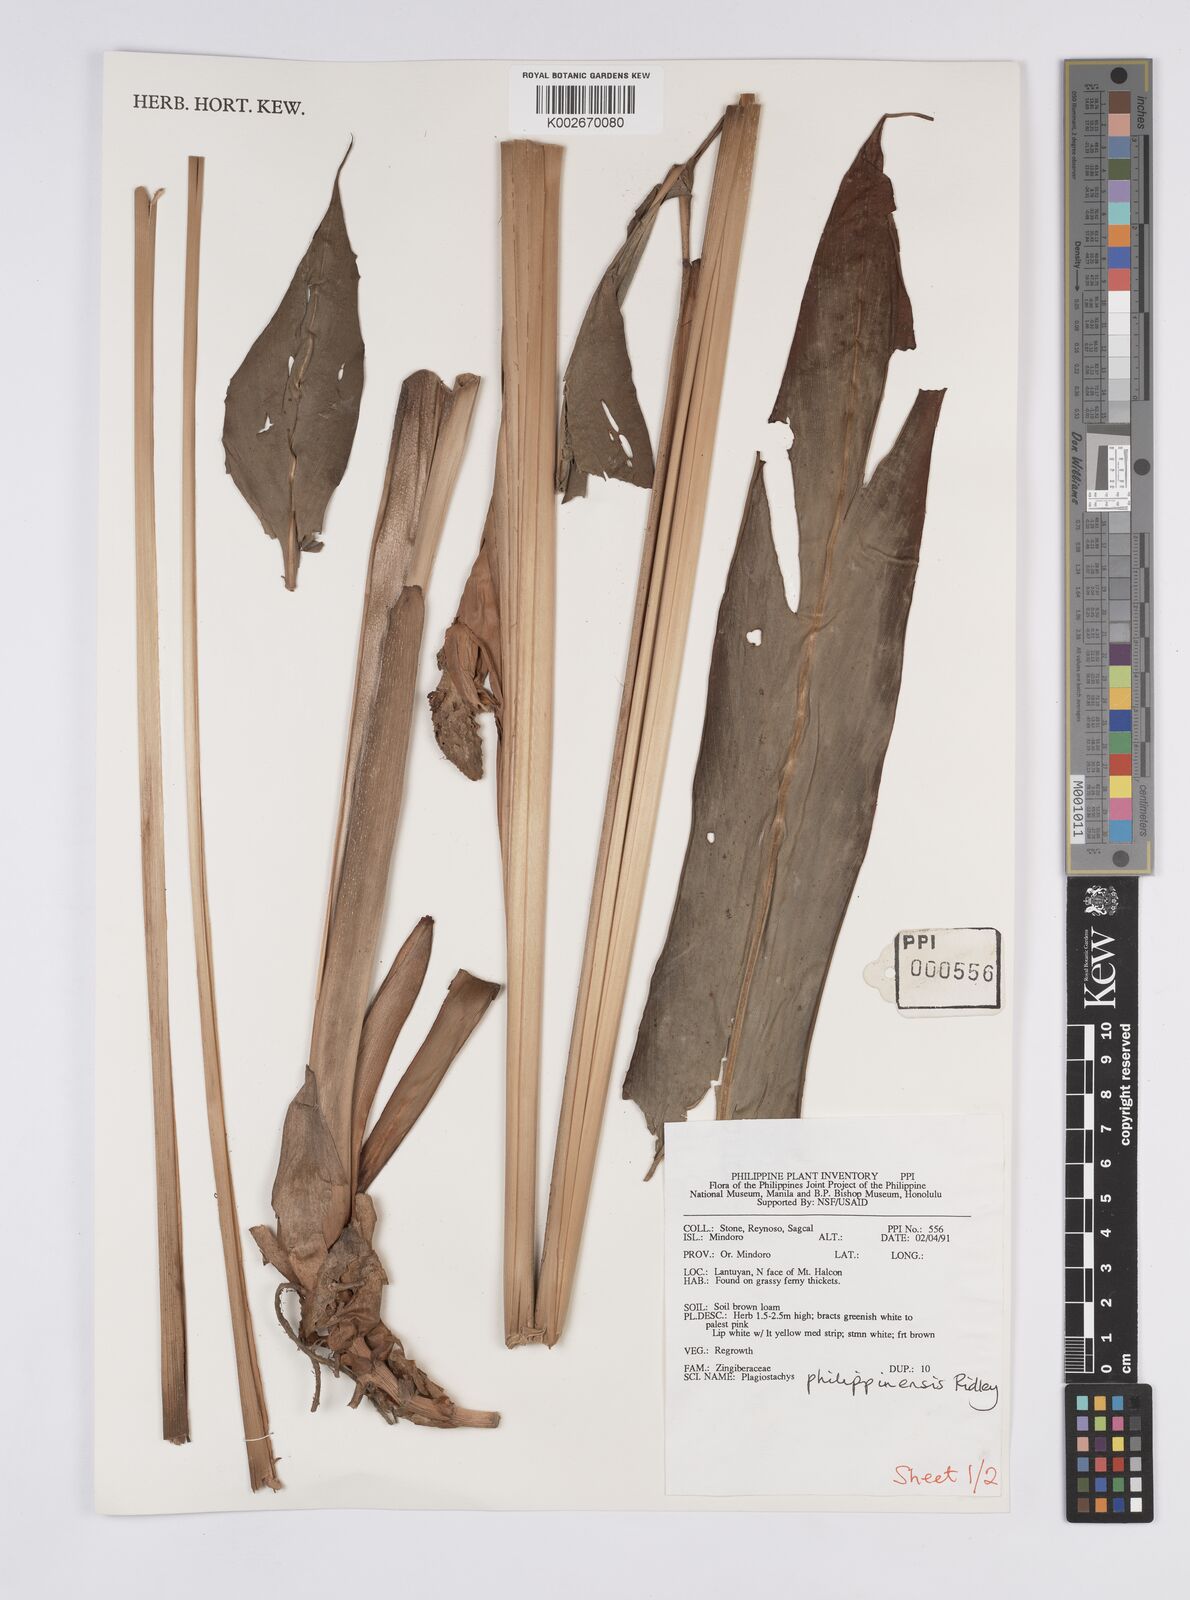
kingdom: Plantae
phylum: Tracheophyta
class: Liliopsida
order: Zingiberales
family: Zingiberaceae
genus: Plagiostachys
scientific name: Plagiostachys philippinensis
